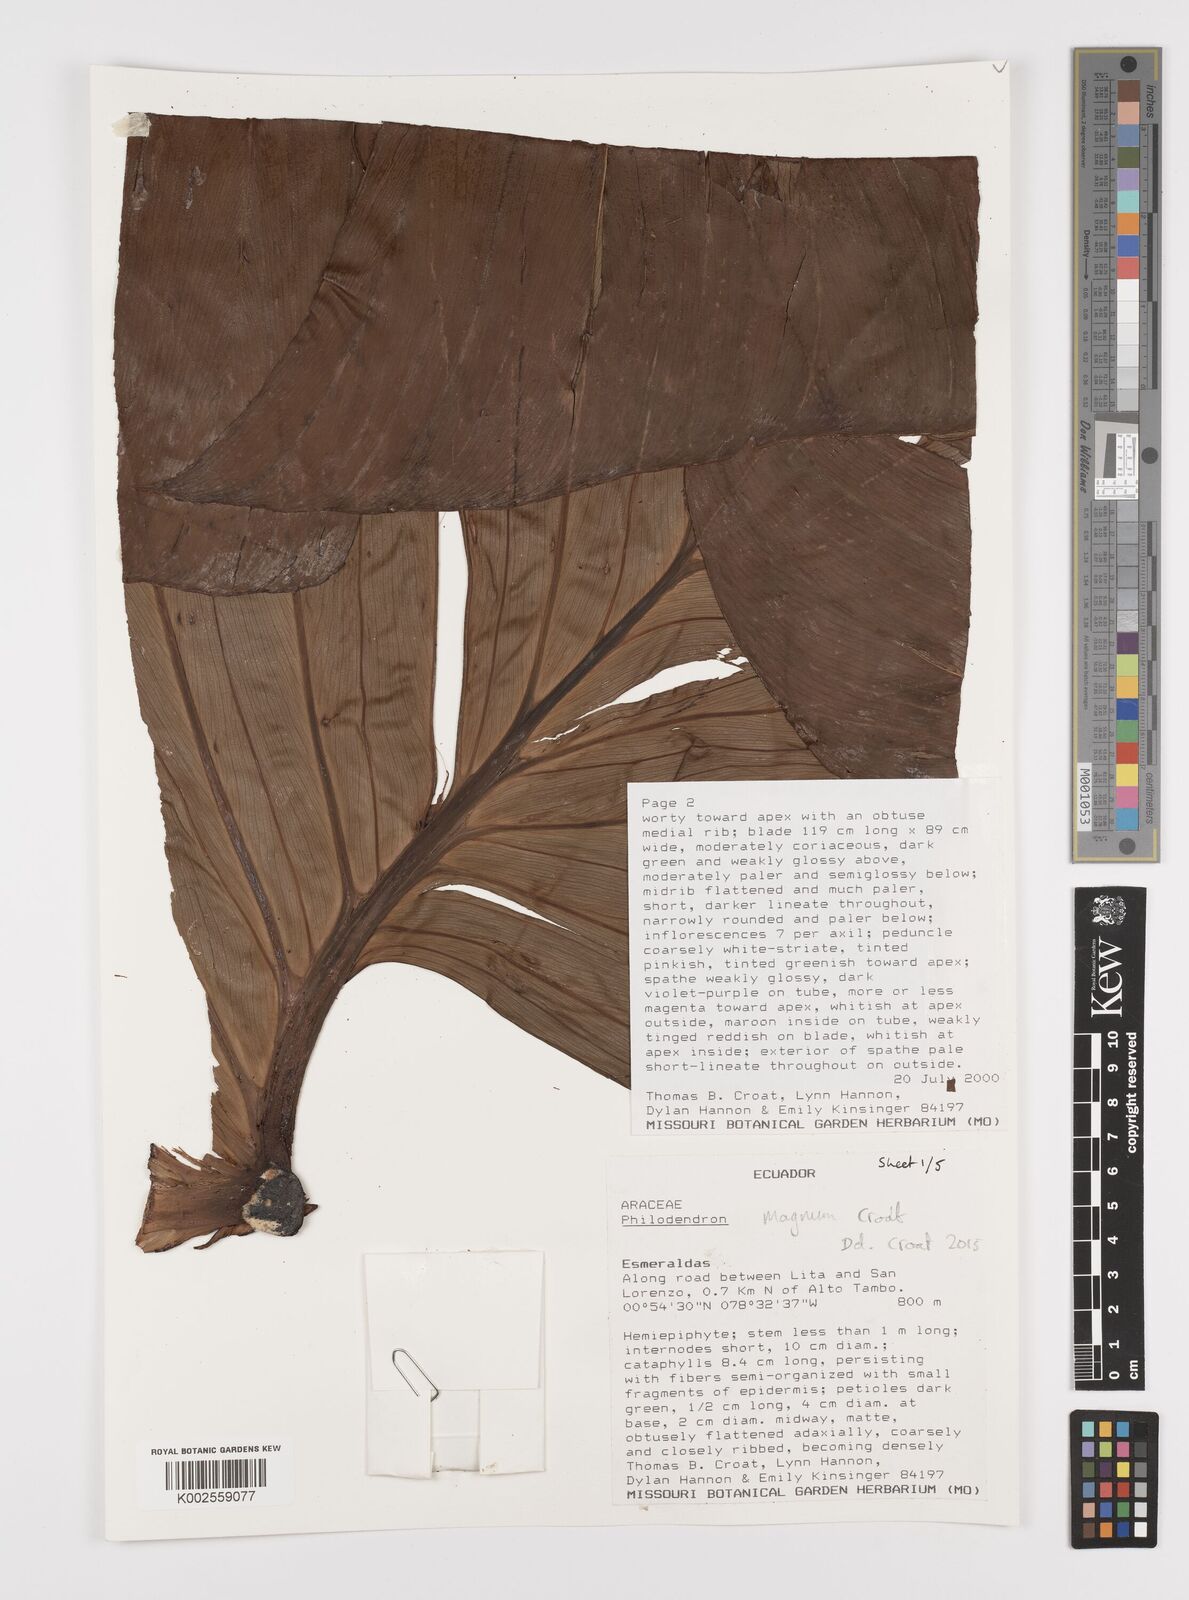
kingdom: Plantae
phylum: Tracheophyta
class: Liliopsida
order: Alismatales
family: Araceae
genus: Philodendron
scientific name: Philodendron magnum
